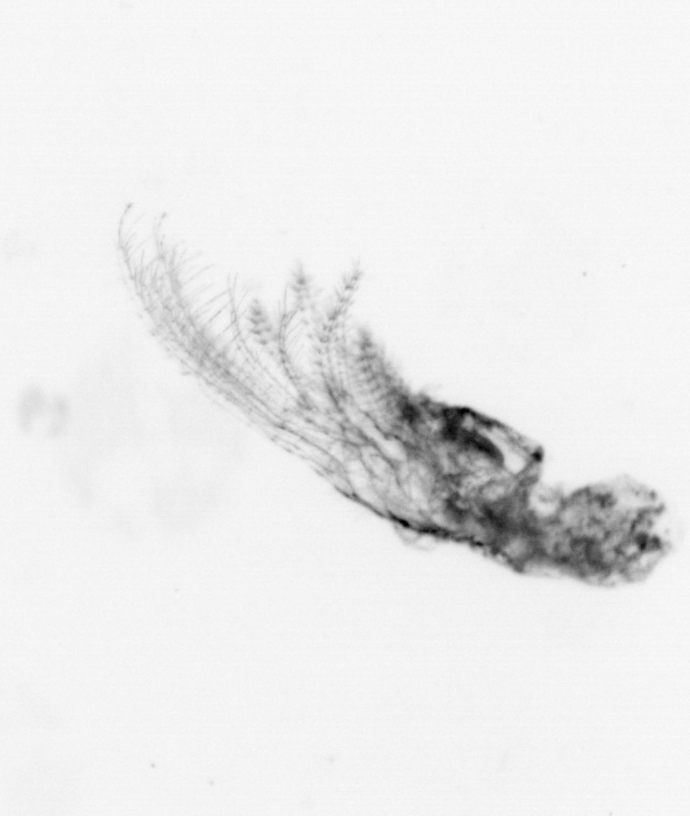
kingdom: Animalia
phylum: Arthropoda
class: Maxillopoda
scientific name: Maxillopoda
